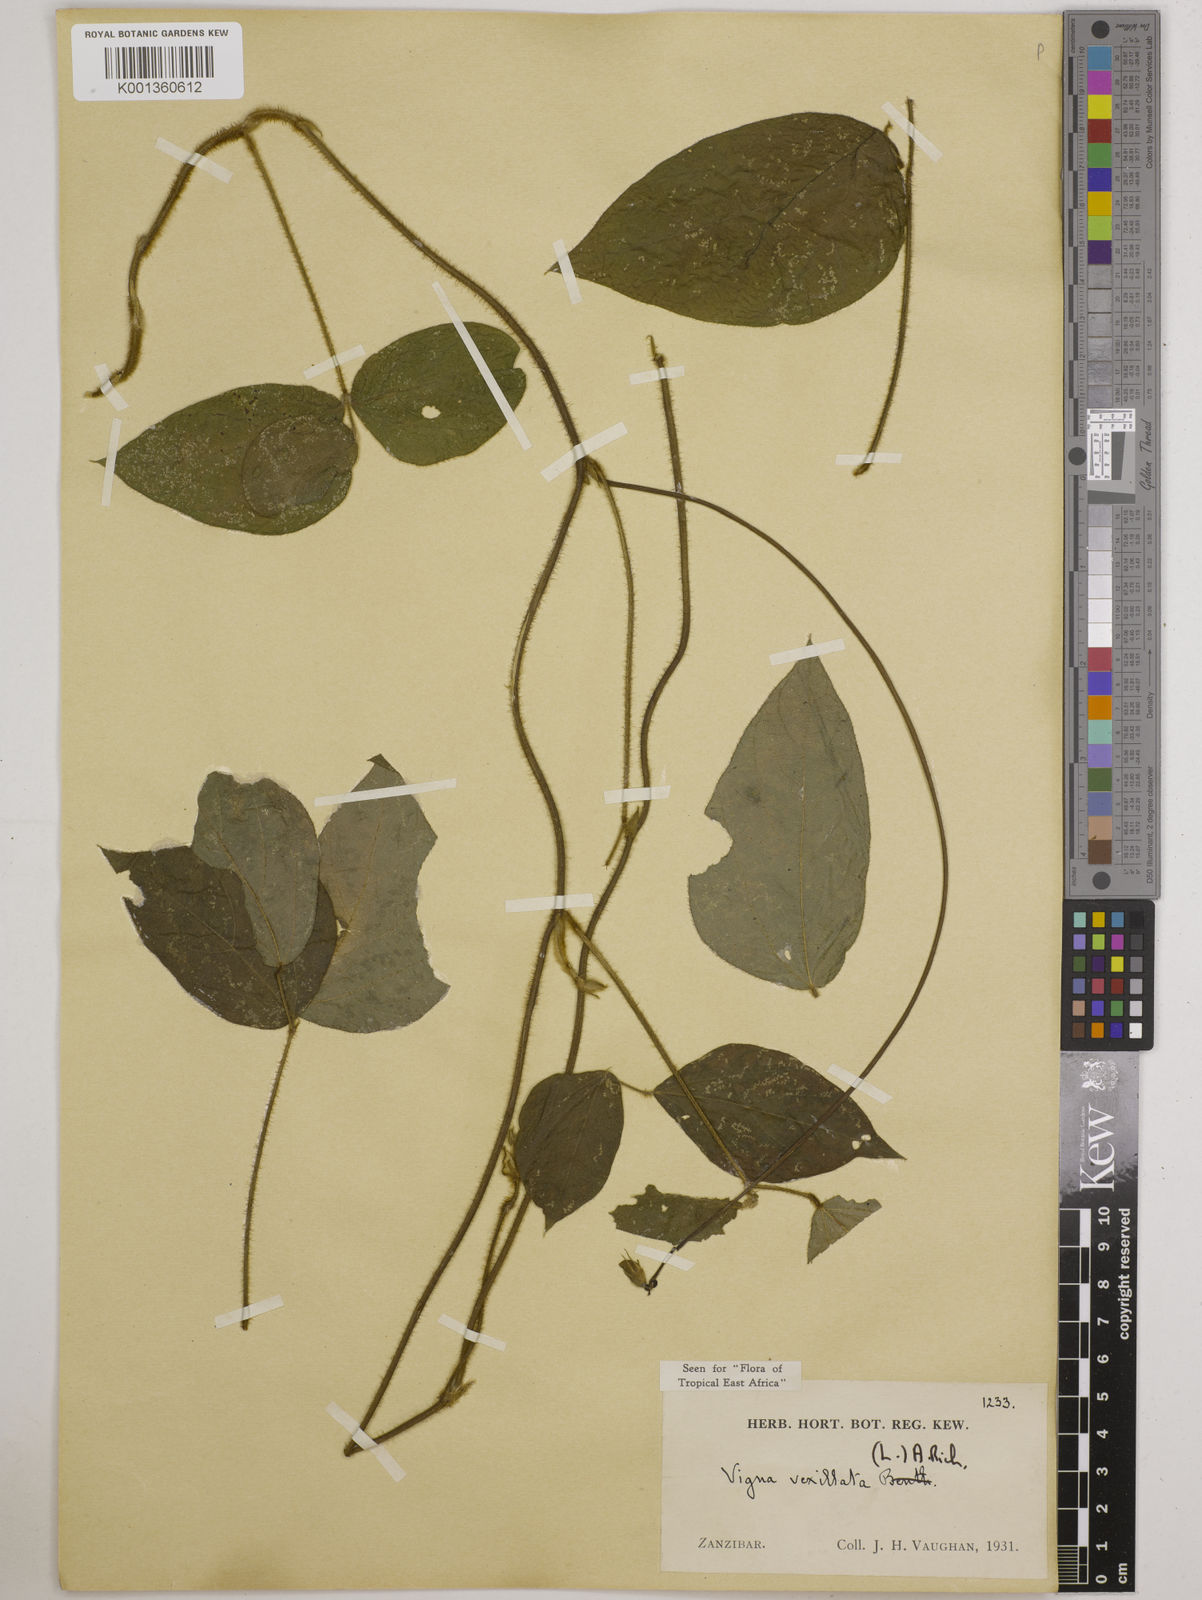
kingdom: Plantae
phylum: Tracheophyta
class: Magnoliopsida
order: Fabales
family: Fabaceae
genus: Vigna
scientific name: Vigna vexillata
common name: Zombi pea
